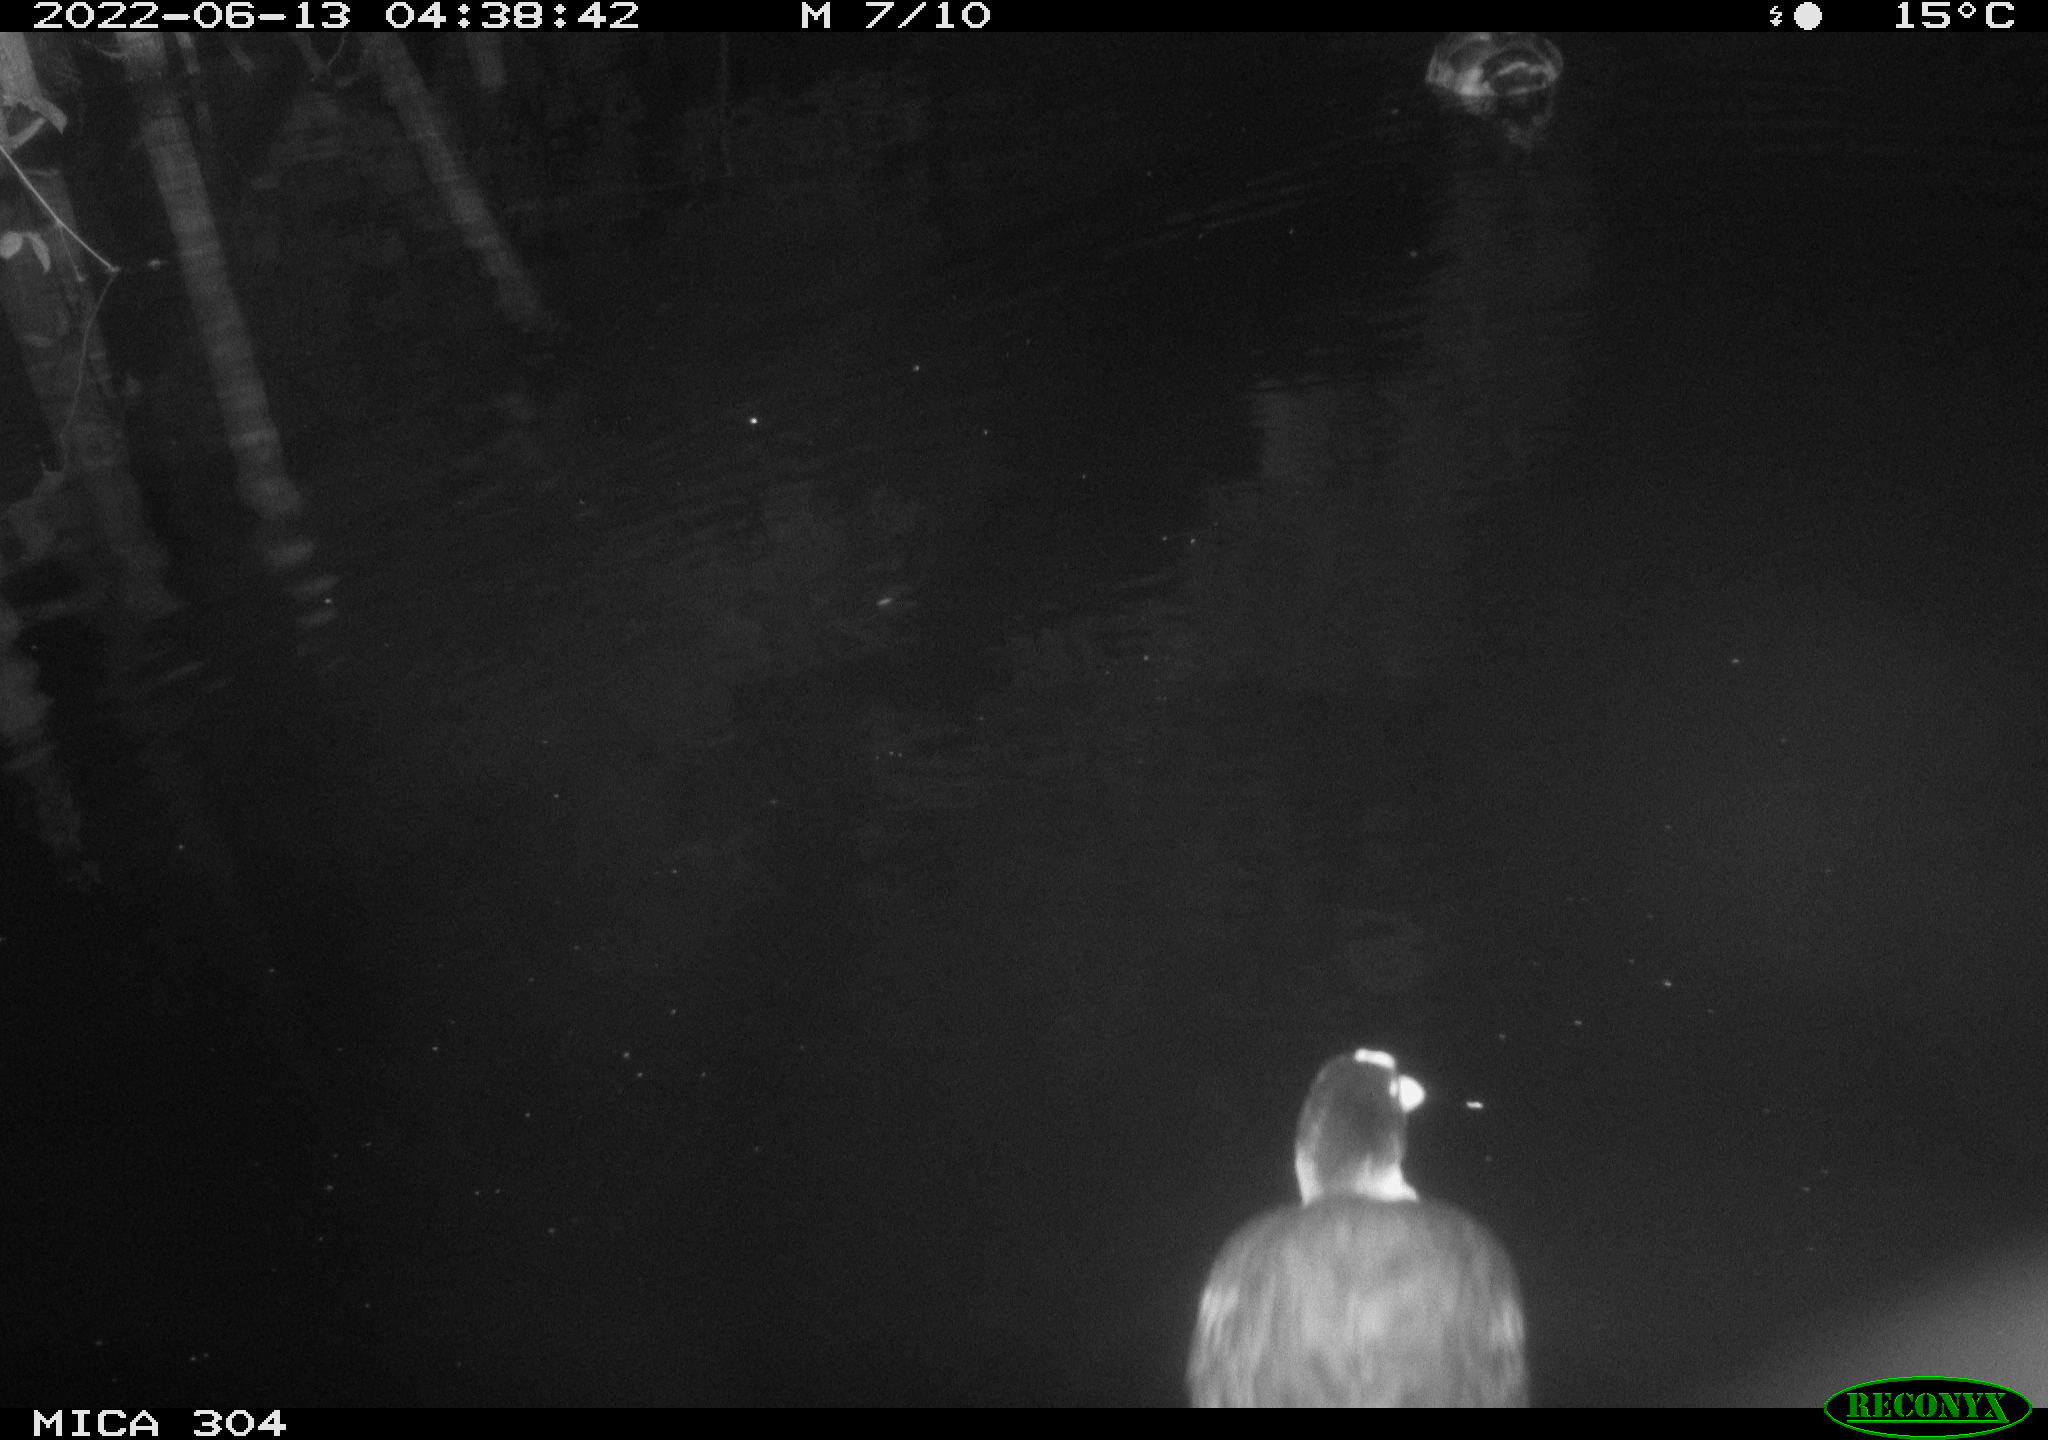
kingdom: Animalia
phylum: Chordata
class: Aves
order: Gruiformes
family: Rallidae
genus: Fulica
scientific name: Fulica atra
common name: Eurasian coot
